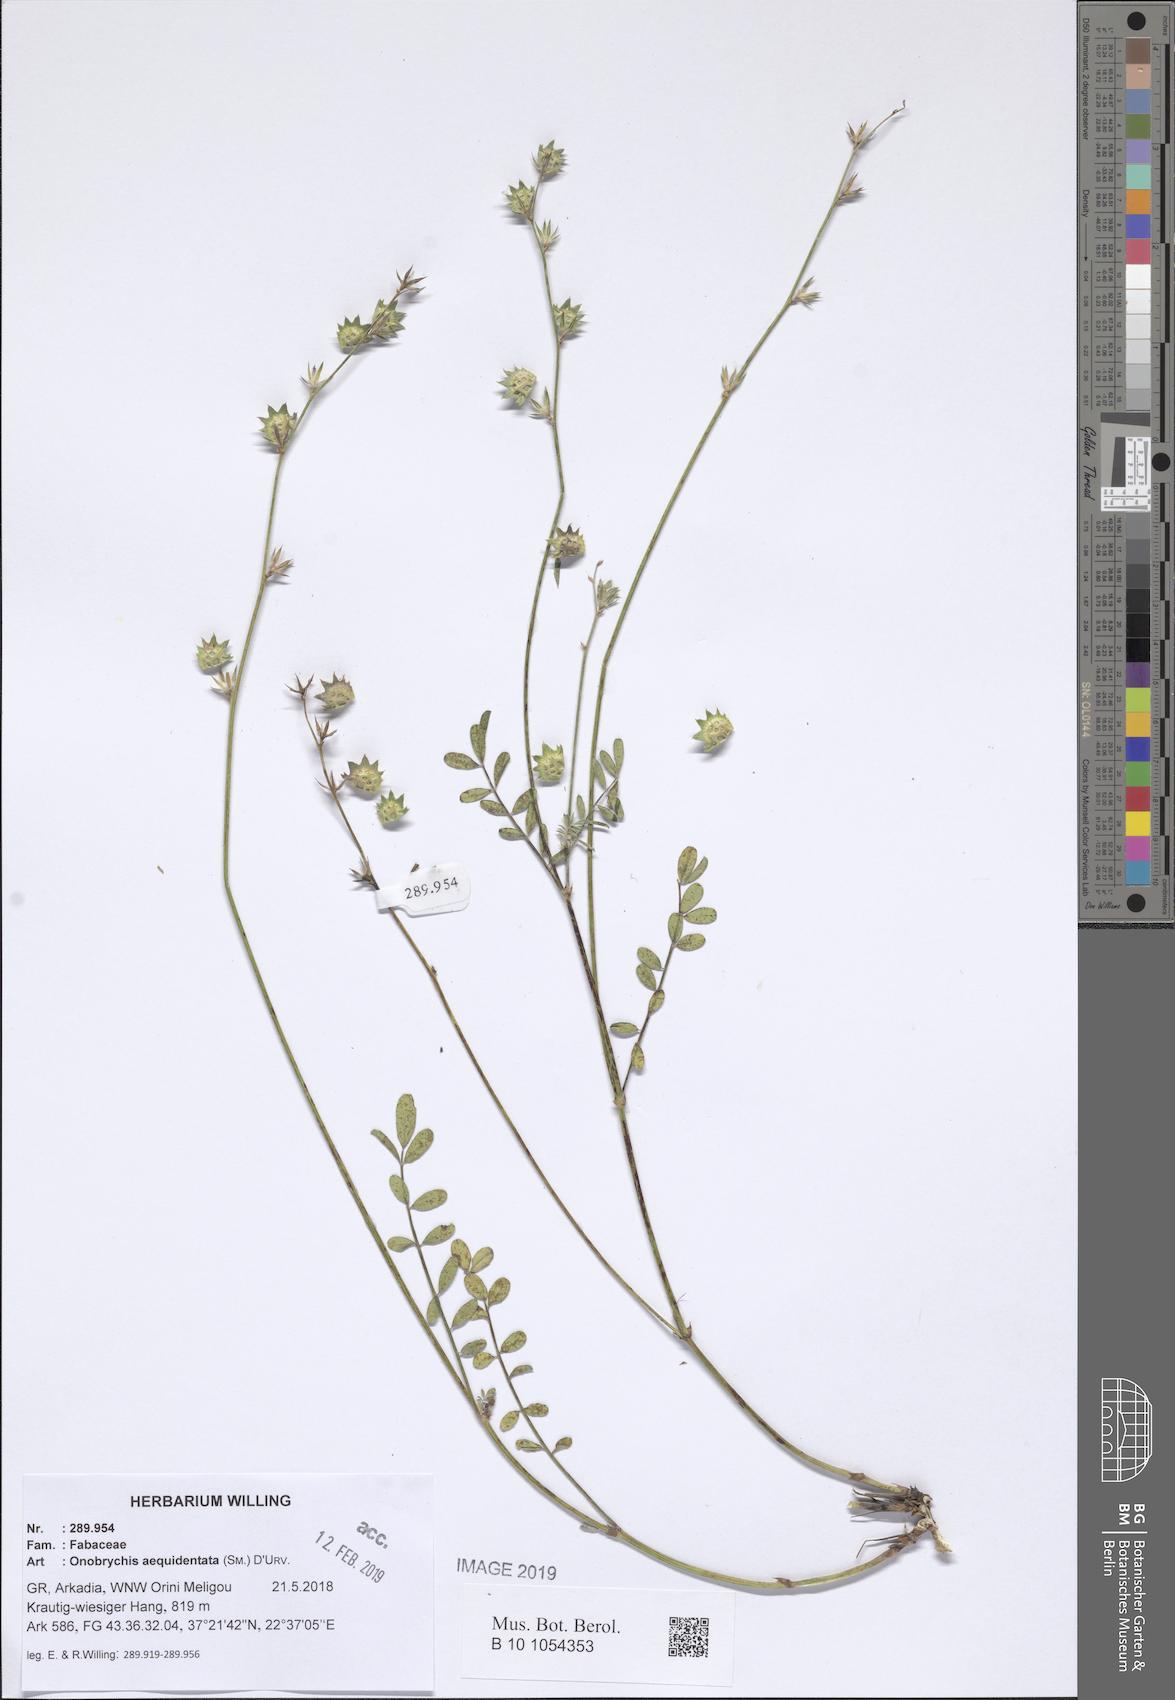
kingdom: Plantae
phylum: Tracheophyta
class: Magnoliopsida
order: Fabales
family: Fabaceae
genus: Onobrychis
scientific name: Onobrychis aequidentata
